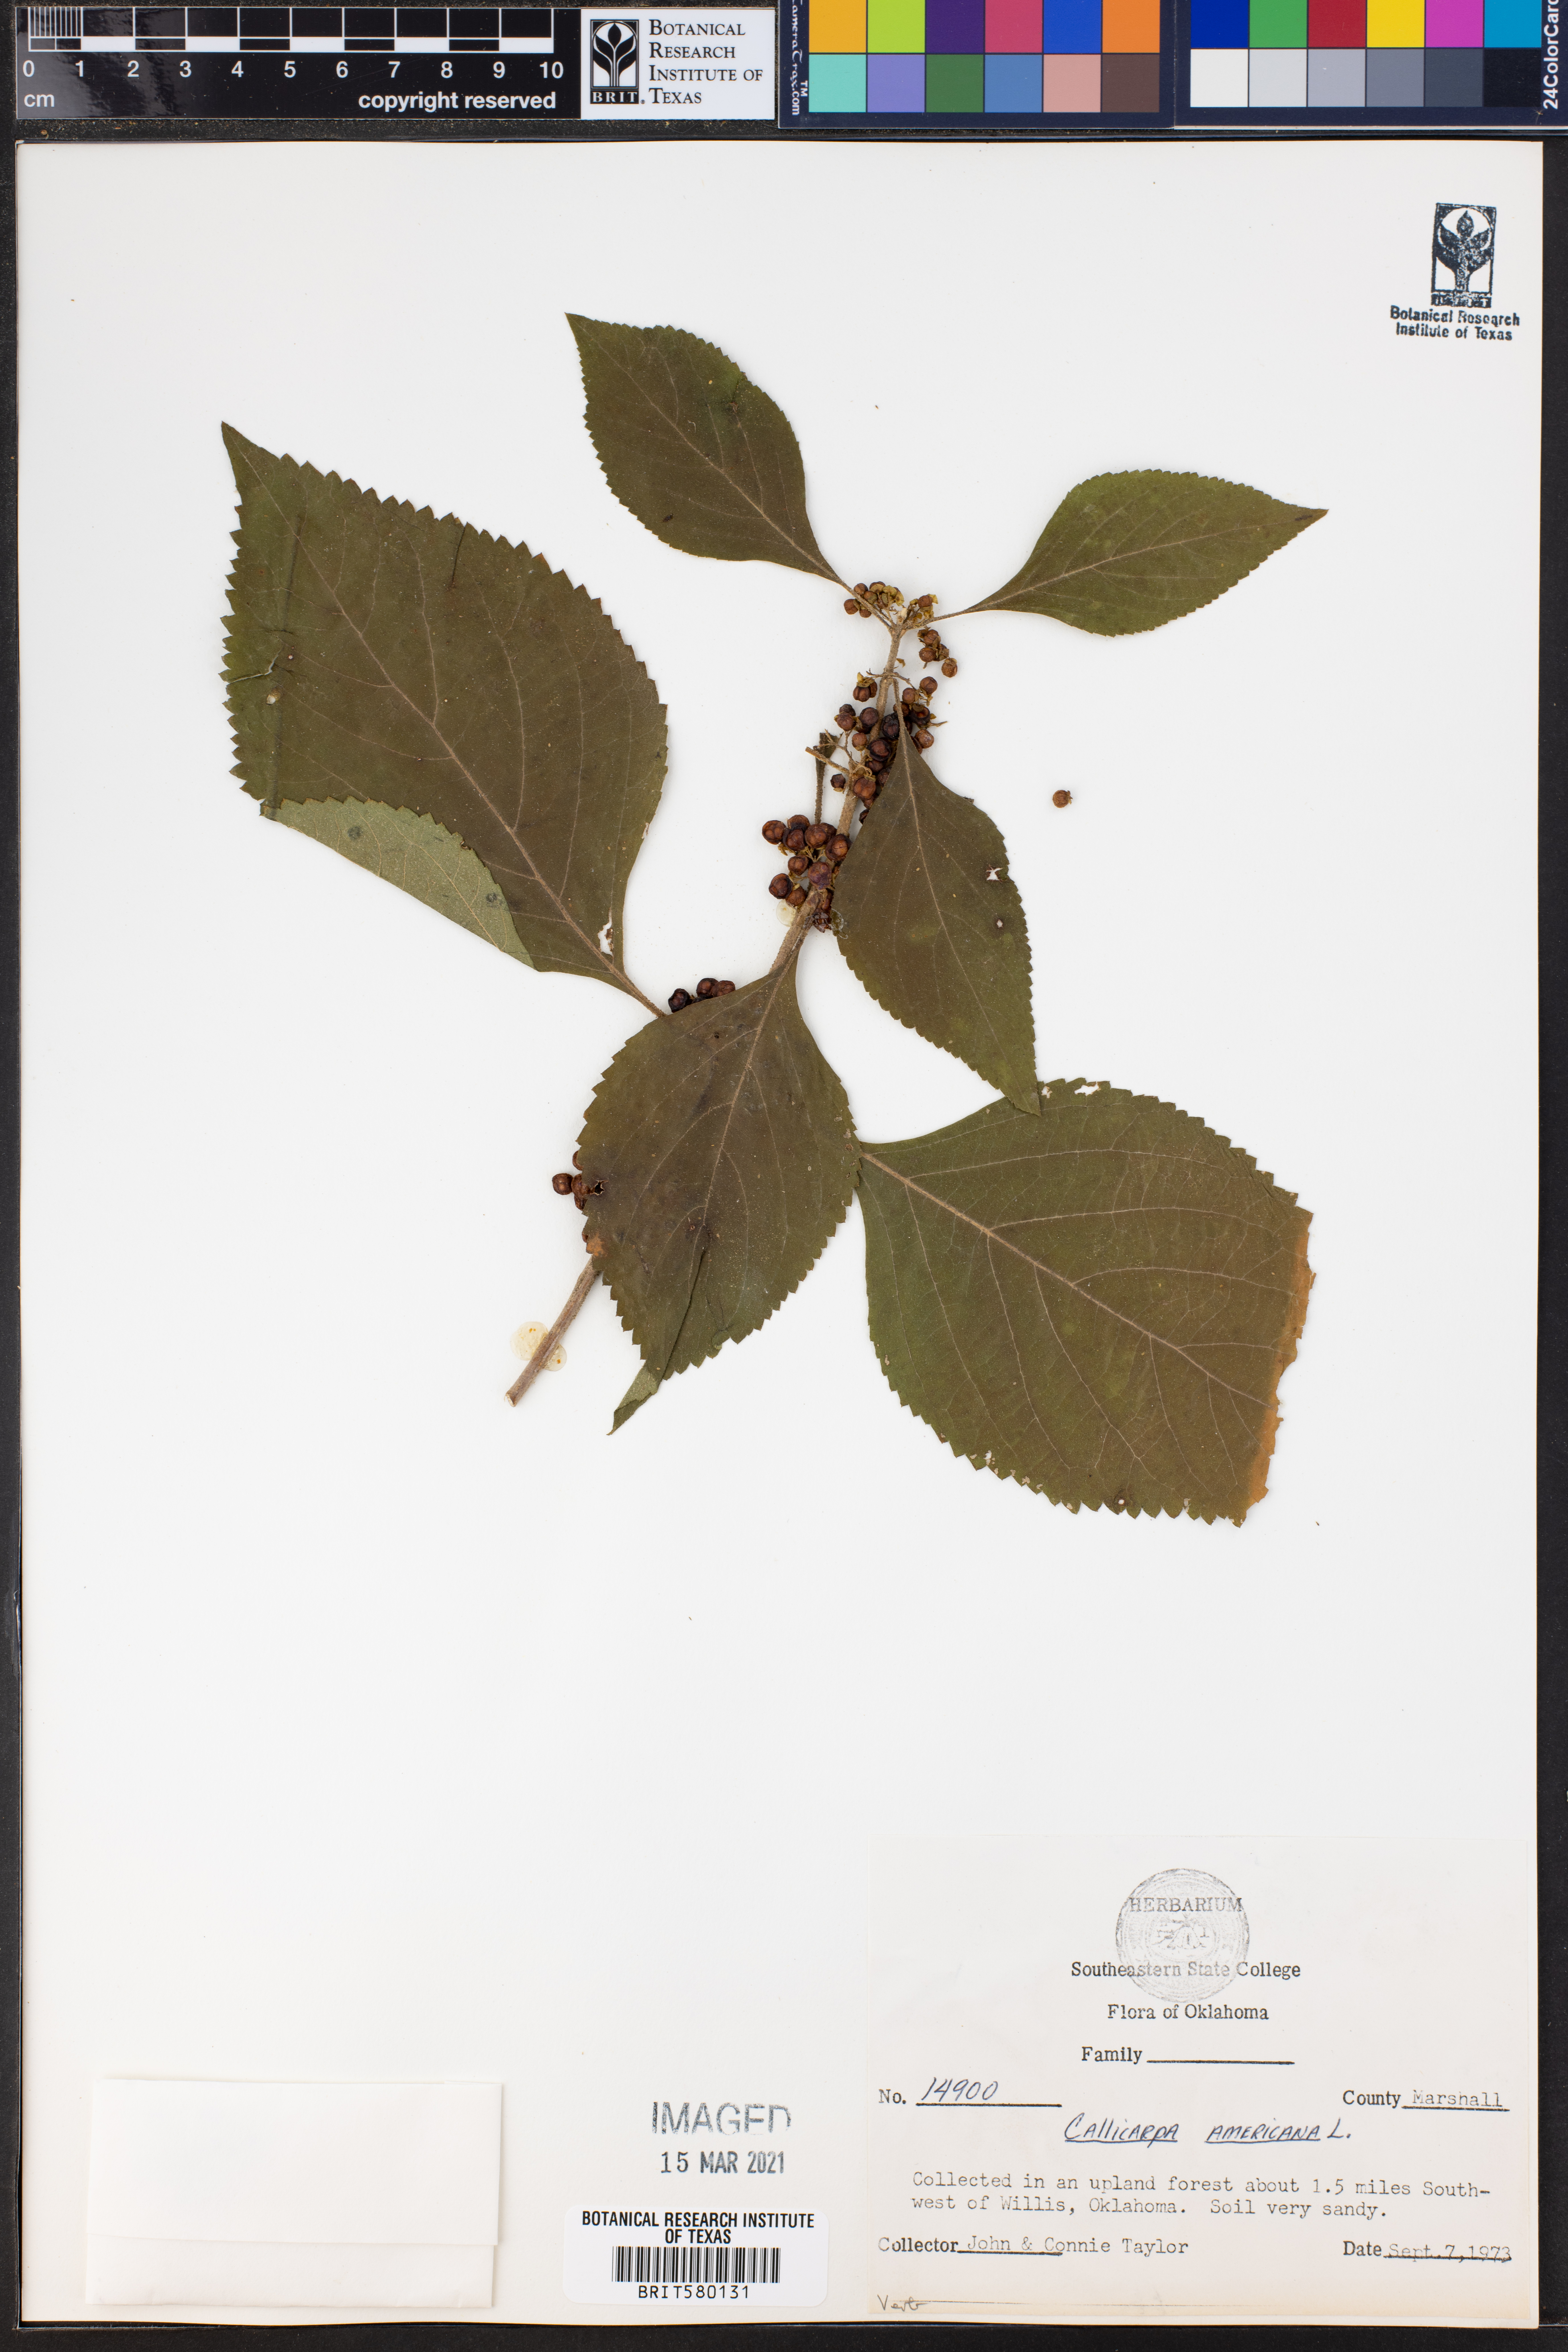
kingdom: Plantae
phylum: Tracheophyta
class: Magnoliopsida
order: Lamiales
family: Lamiaceae
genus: Callicarpa
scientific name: Callicarpa americana
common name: American beautyberry
